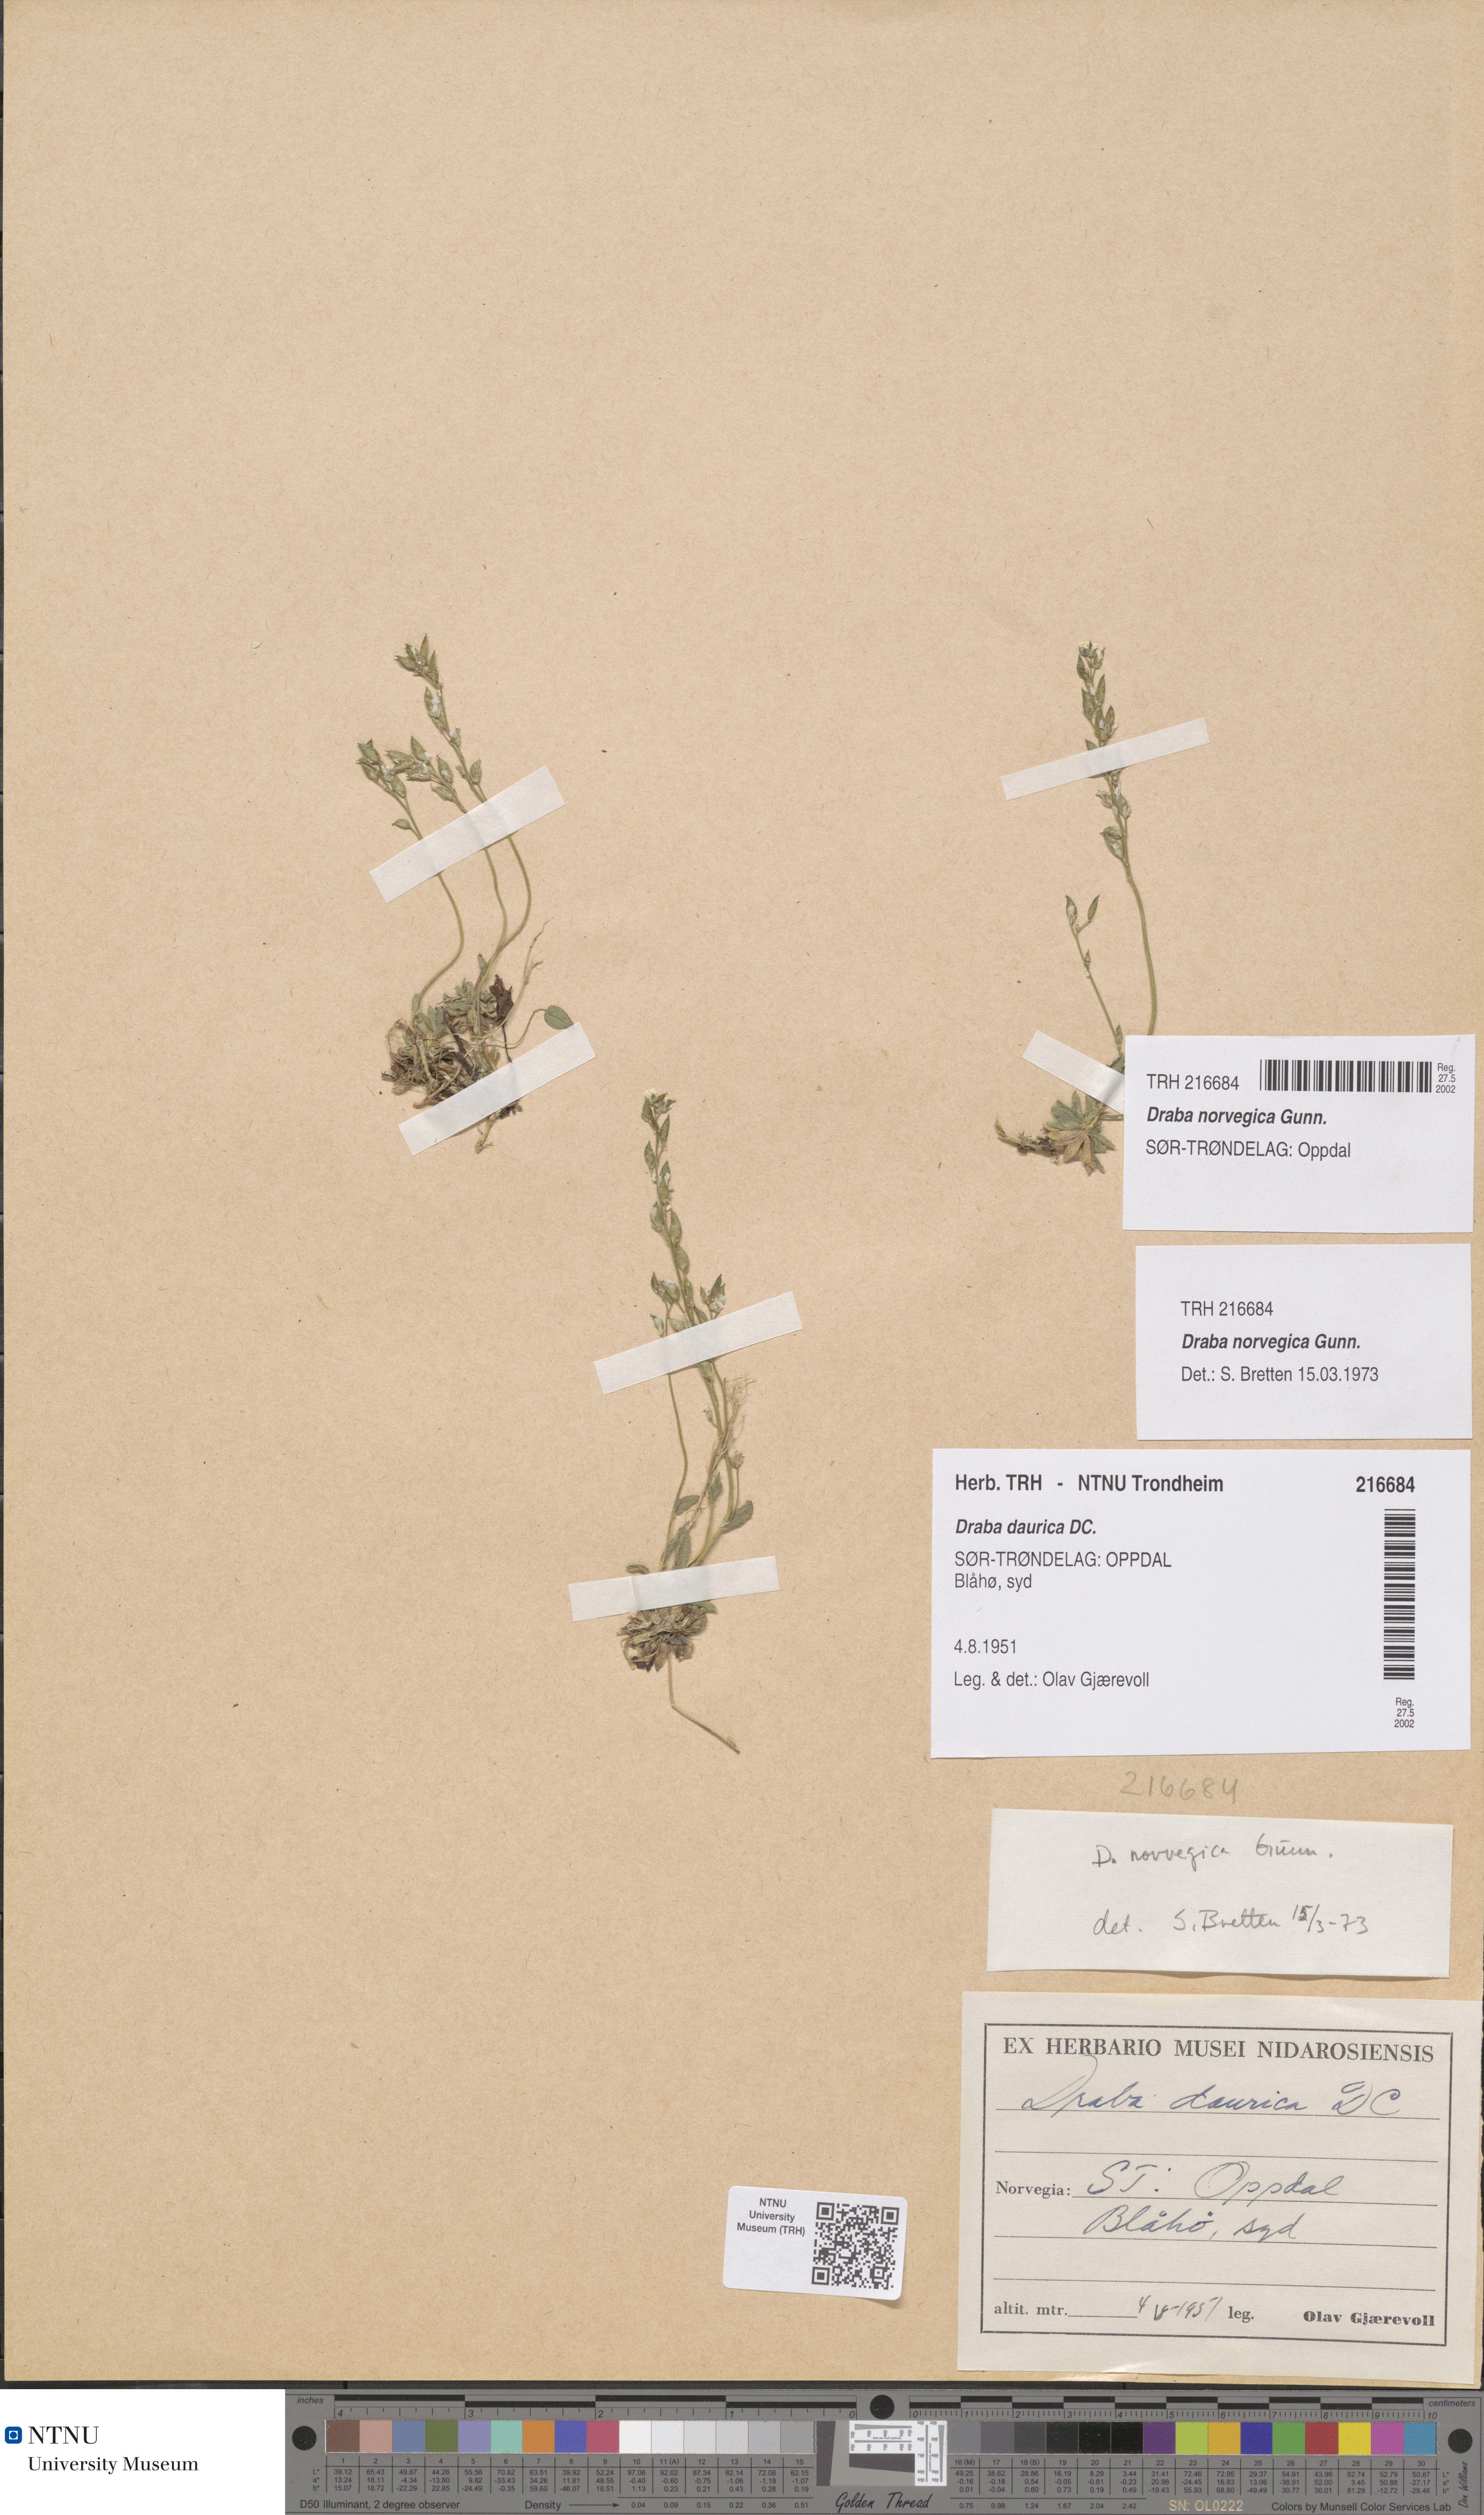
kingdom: Plantae
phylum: Tracheophyta
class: Magnoliopsida
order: Brassicales
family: Brassicaceae
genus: Draba
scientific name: Draba norvegica
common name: Rock whitlowgrass
